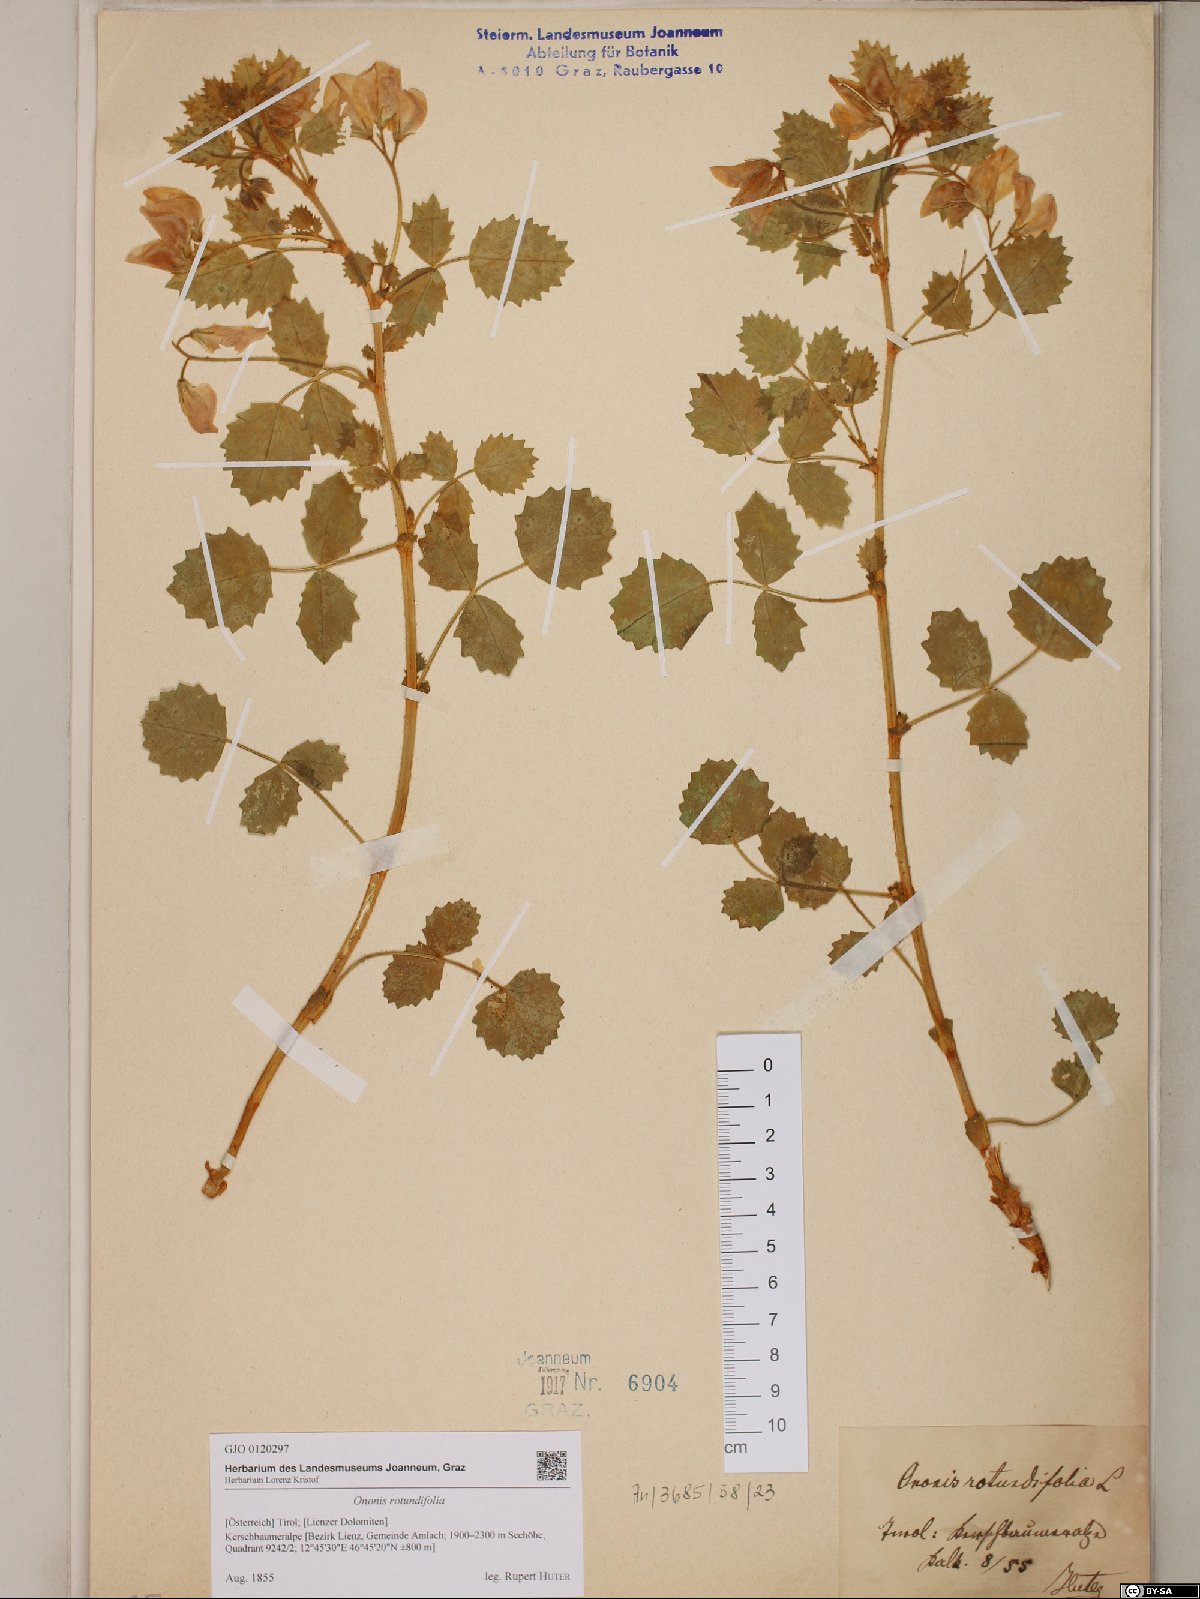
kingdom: Plantae
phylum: Tracheophyta
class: Magnoliopsida
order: Fabales
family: Fabaceae
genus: Ononis
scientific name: Ononis rotundifolia
